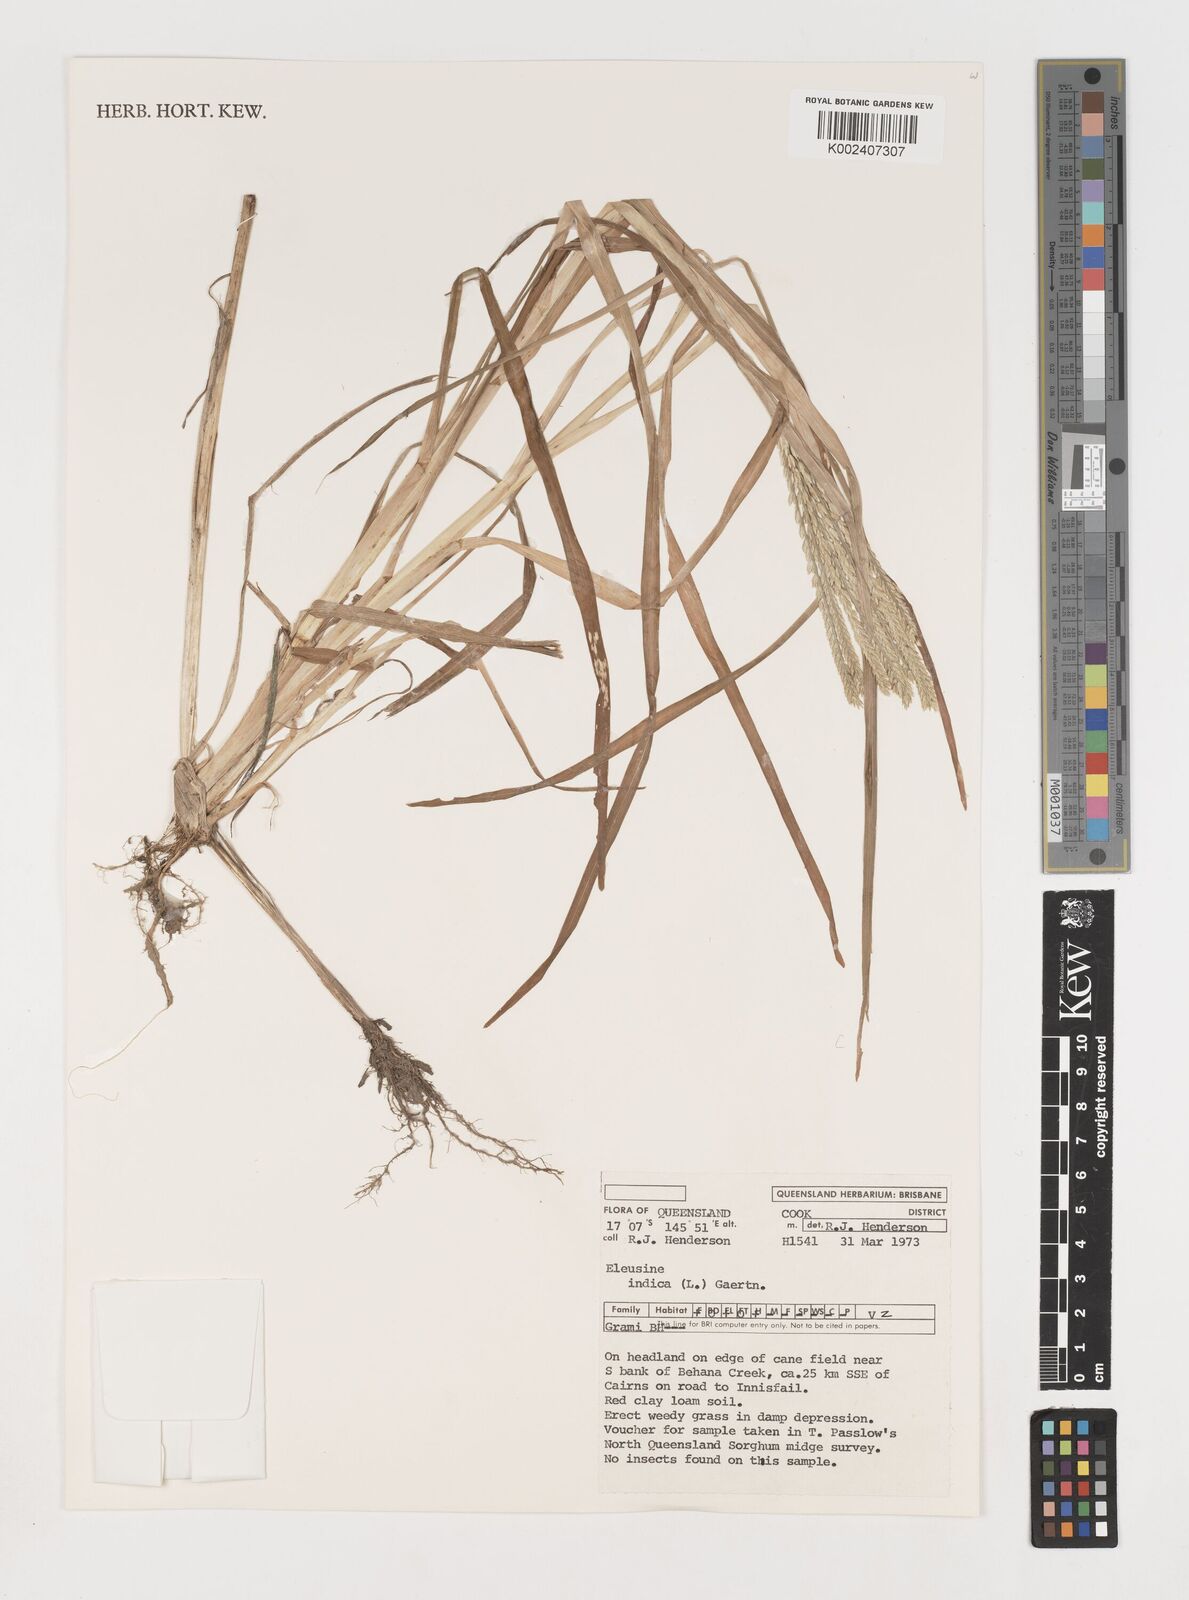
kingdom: Plantae
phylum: Tracheophyta
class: Liliopsida
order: Poales
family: Poaceae
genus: Eleusine
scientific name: Eleusine indica
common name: Yard-grass
